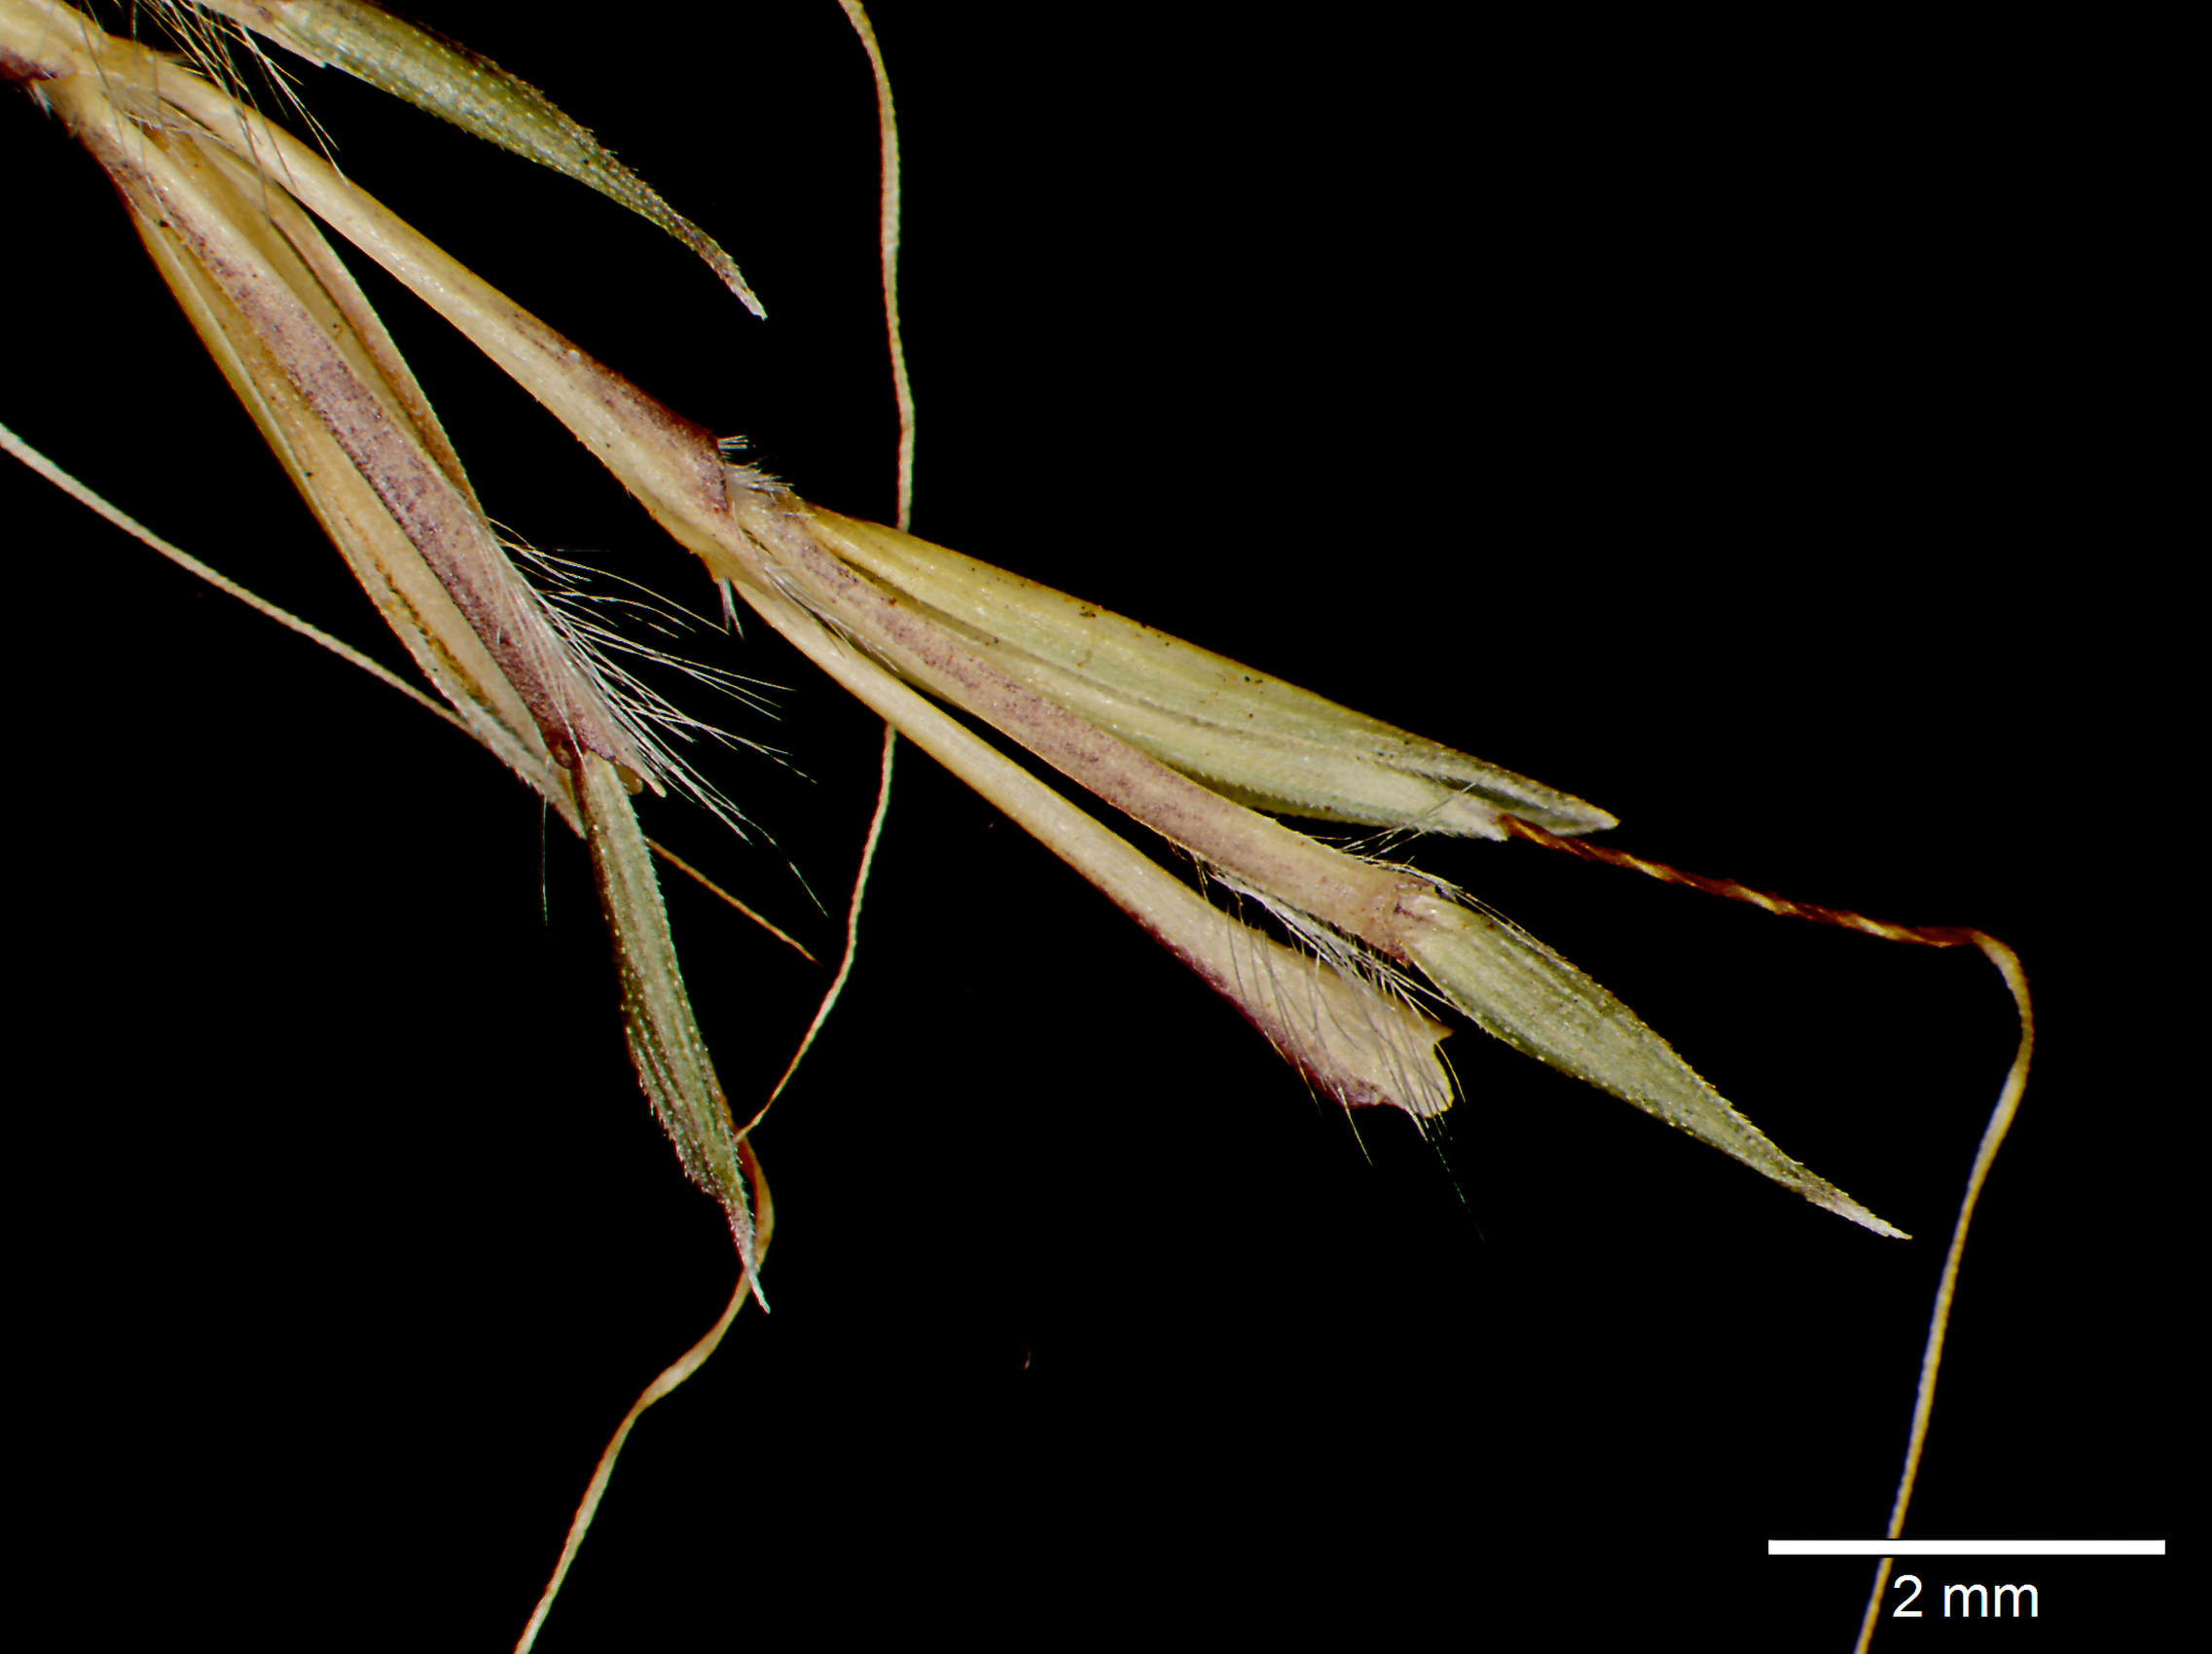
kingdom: Plantae
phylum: Tracheophyta
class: Liliopsida
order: Poales
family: Poaceae
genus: Andropogon
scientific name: Andropogon multinervosus
